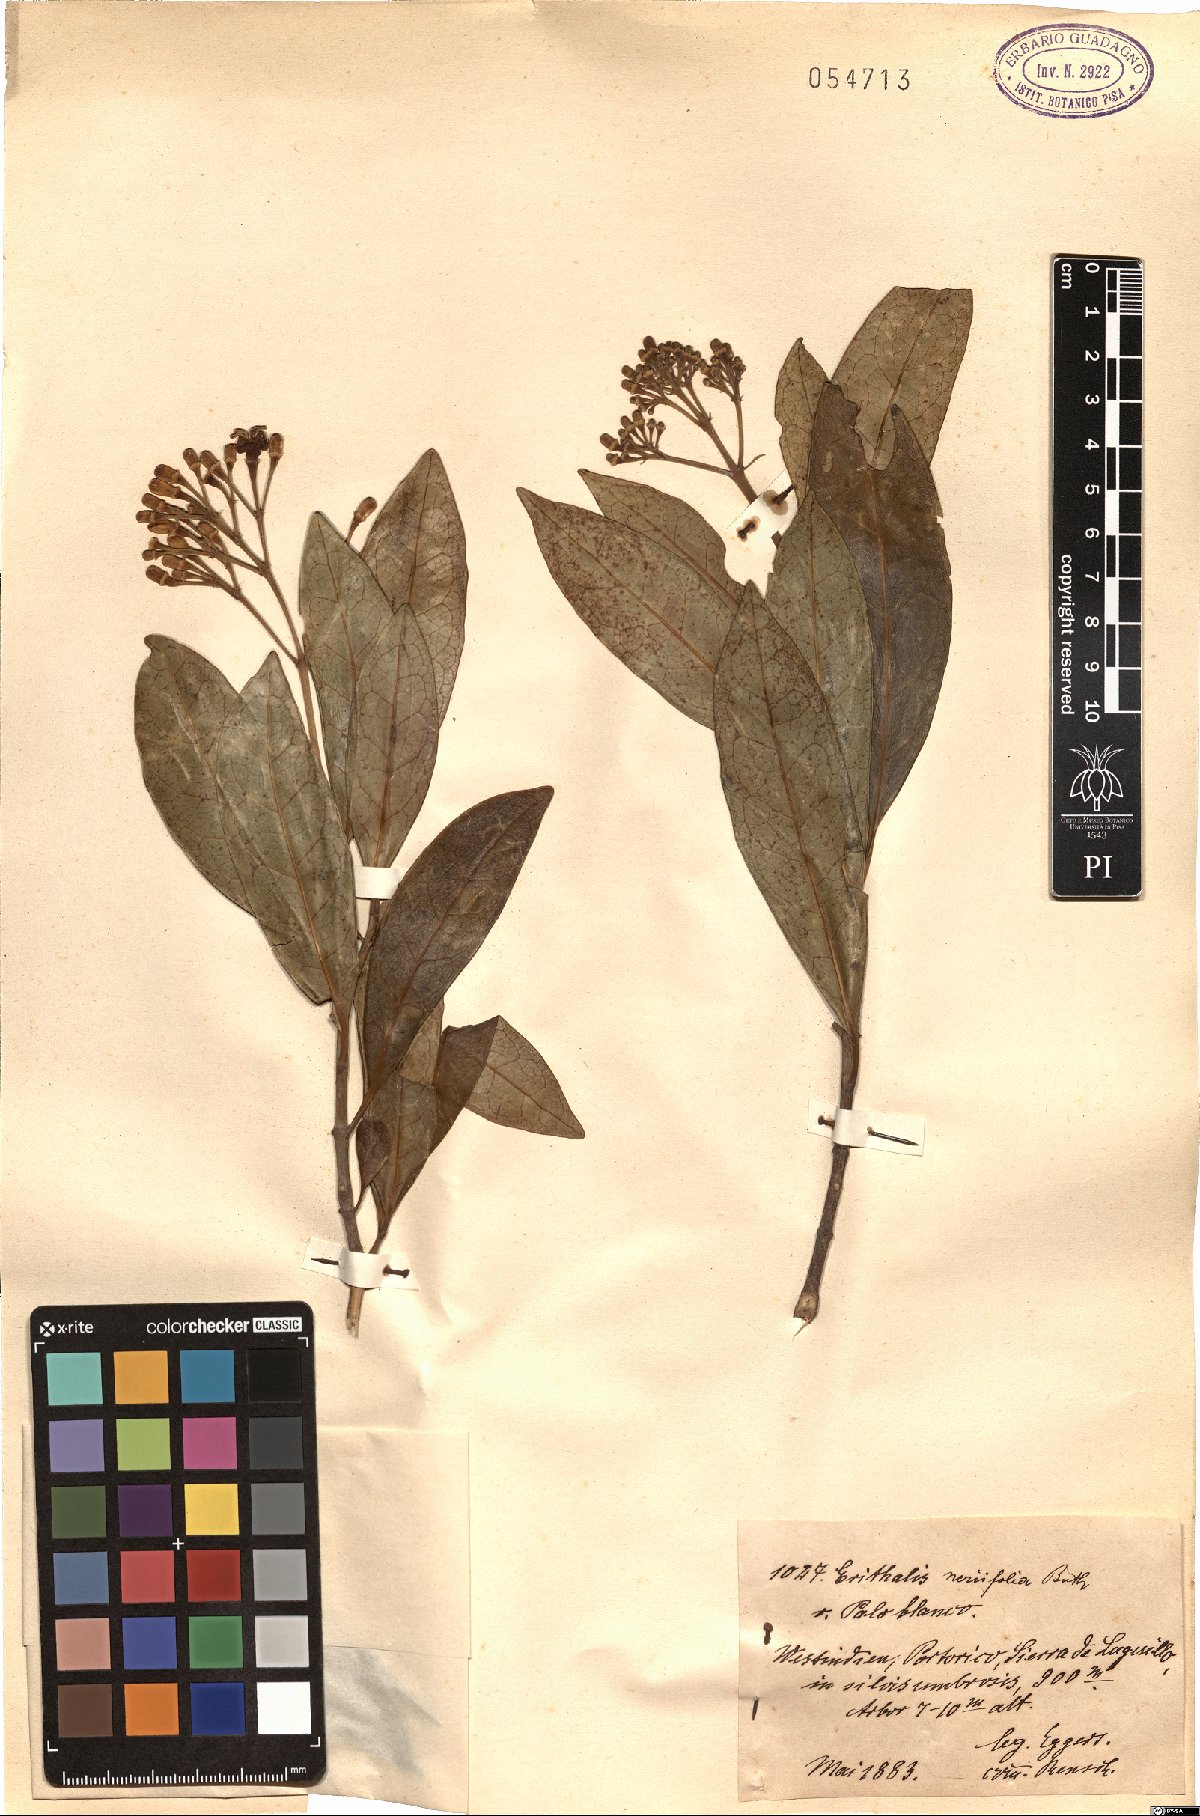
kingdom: Plantae
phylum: Tracheophyta
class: Magnoliopsida
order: Gentianales
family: Rubiaceae
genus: Erithalis
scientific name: Erithalis
